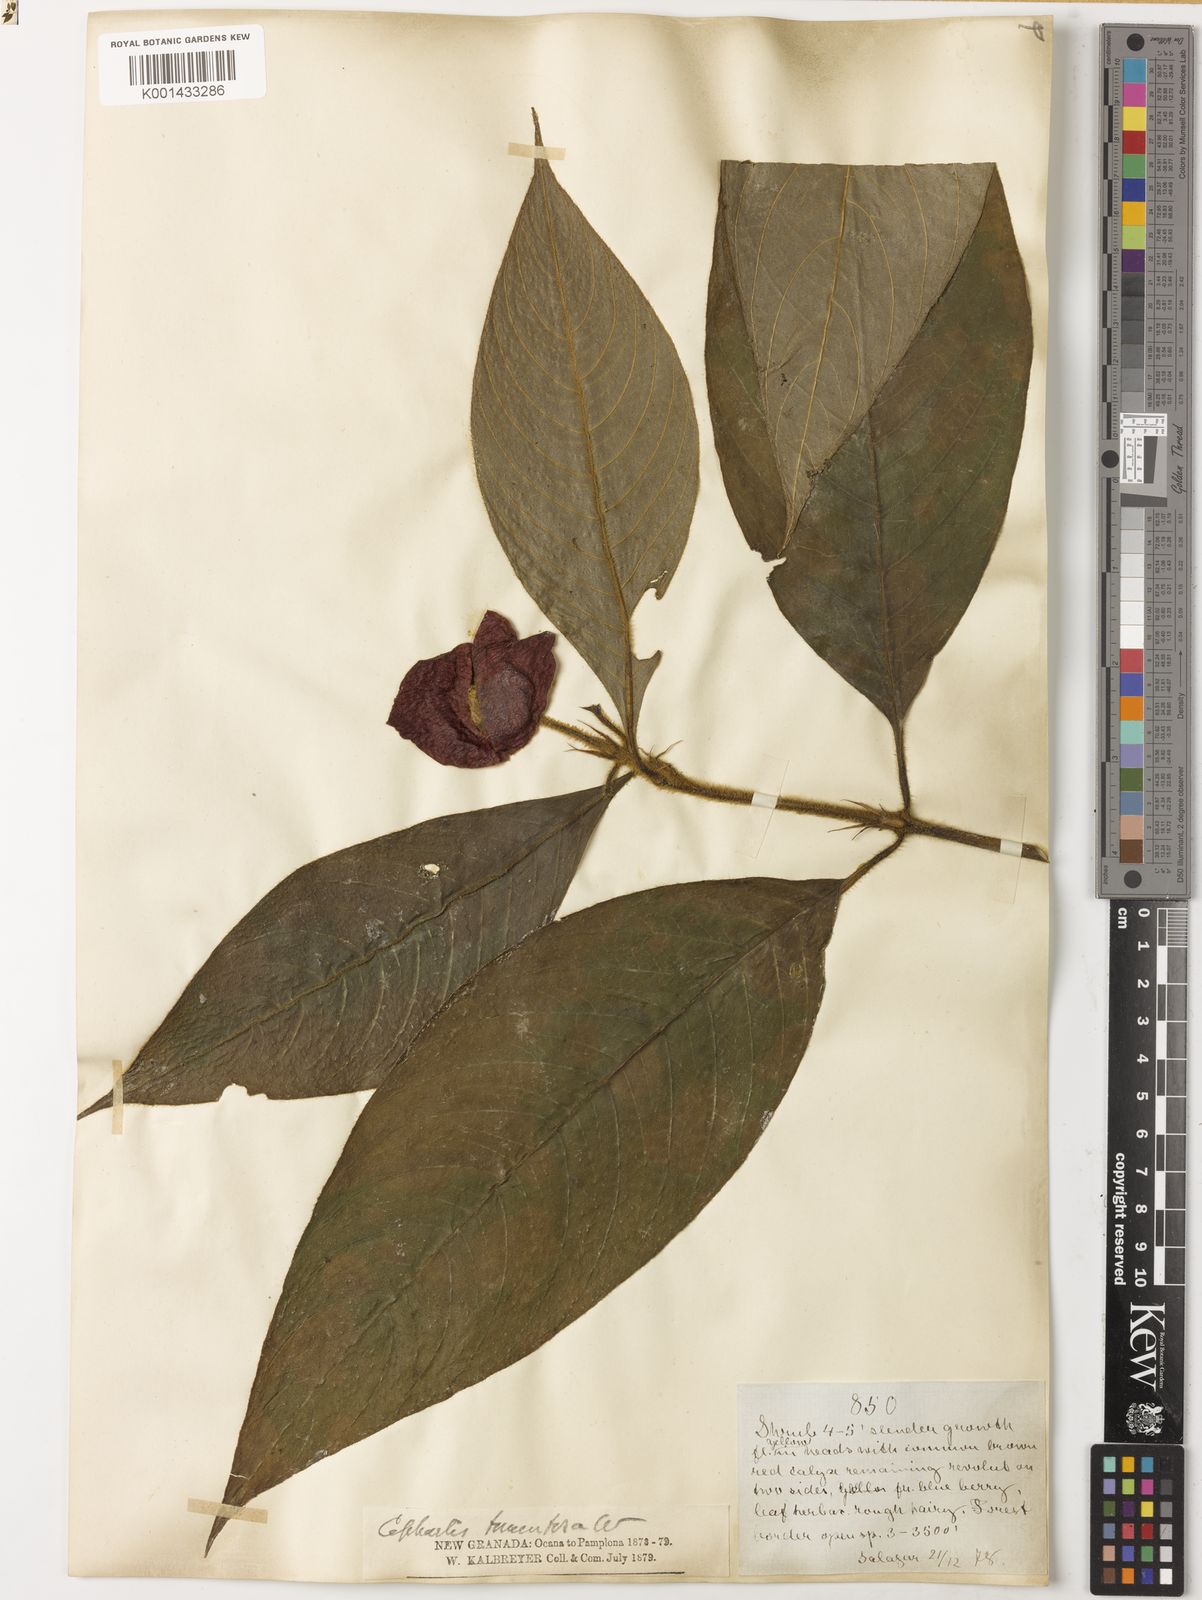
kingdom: Plantae
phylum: Tracheophyta
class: Magnoliopsida
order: Gentianales
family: Rubiaceae
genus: Psychotria
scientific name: Psychotria micrantha
